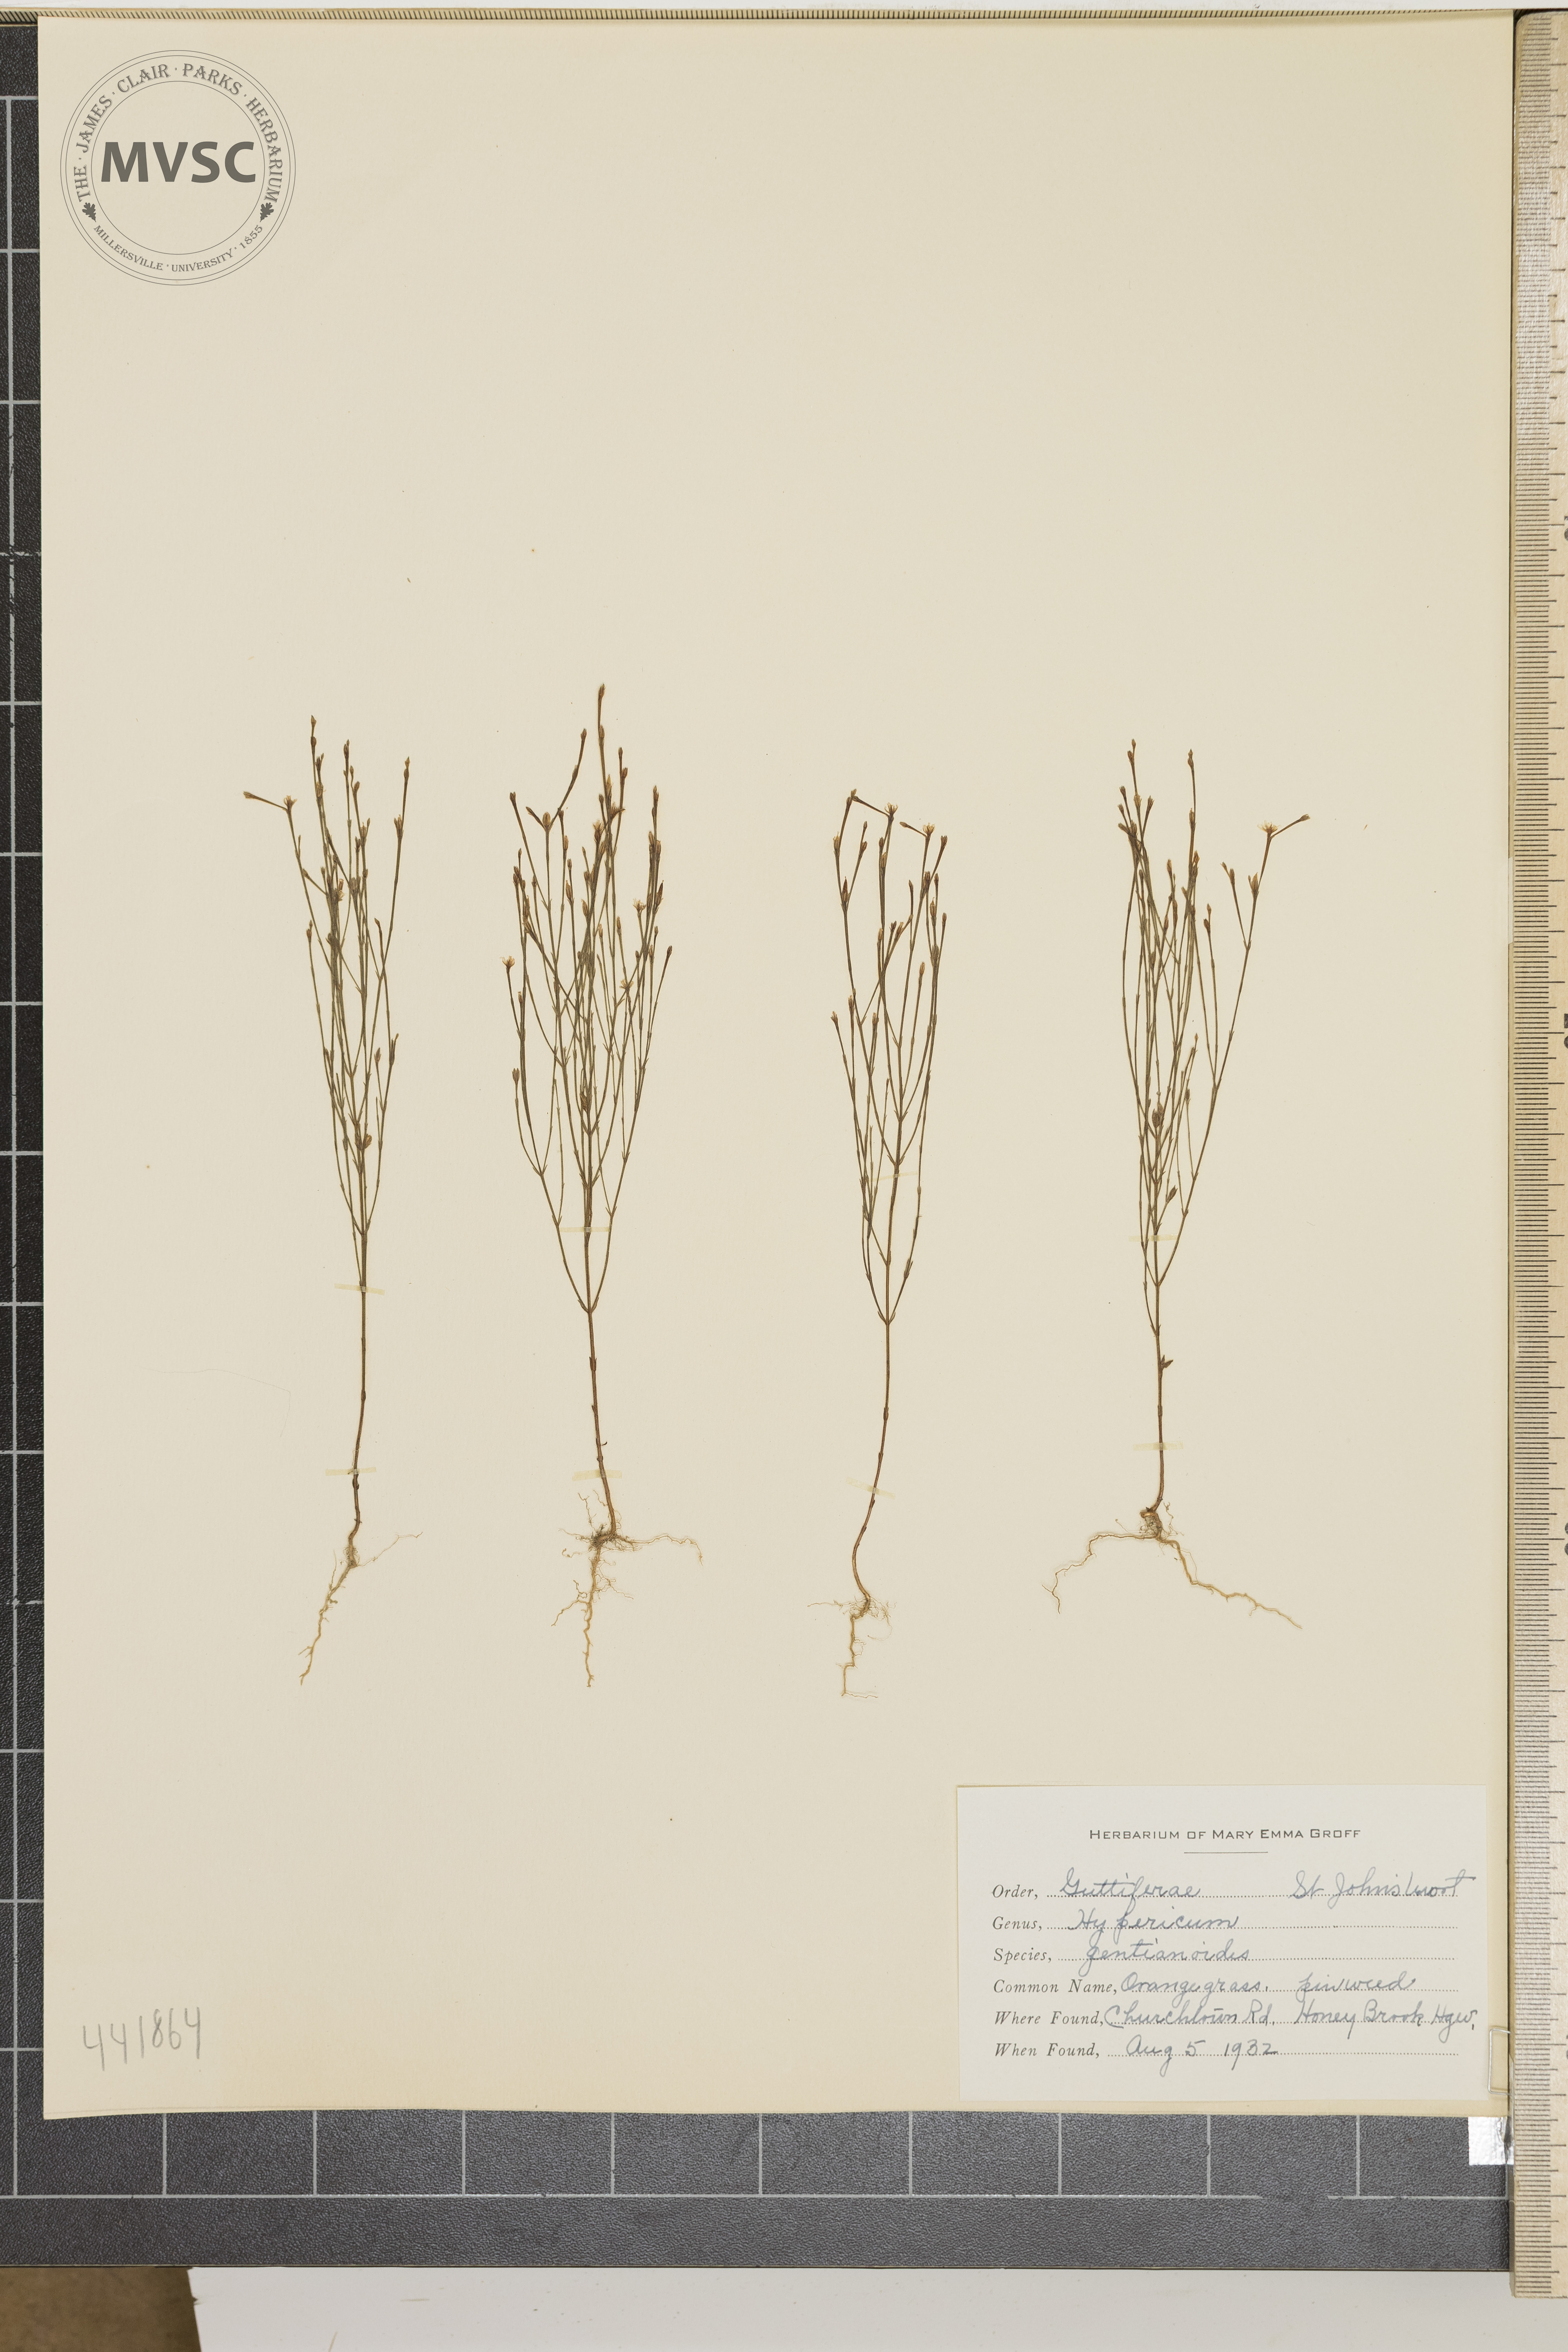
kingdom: Plantae
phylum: Tracheophyta
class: Magnoliopsida
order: Malpighiales
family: Hypericaceae
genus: Hypericum
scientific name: Hypericum gentianoides
